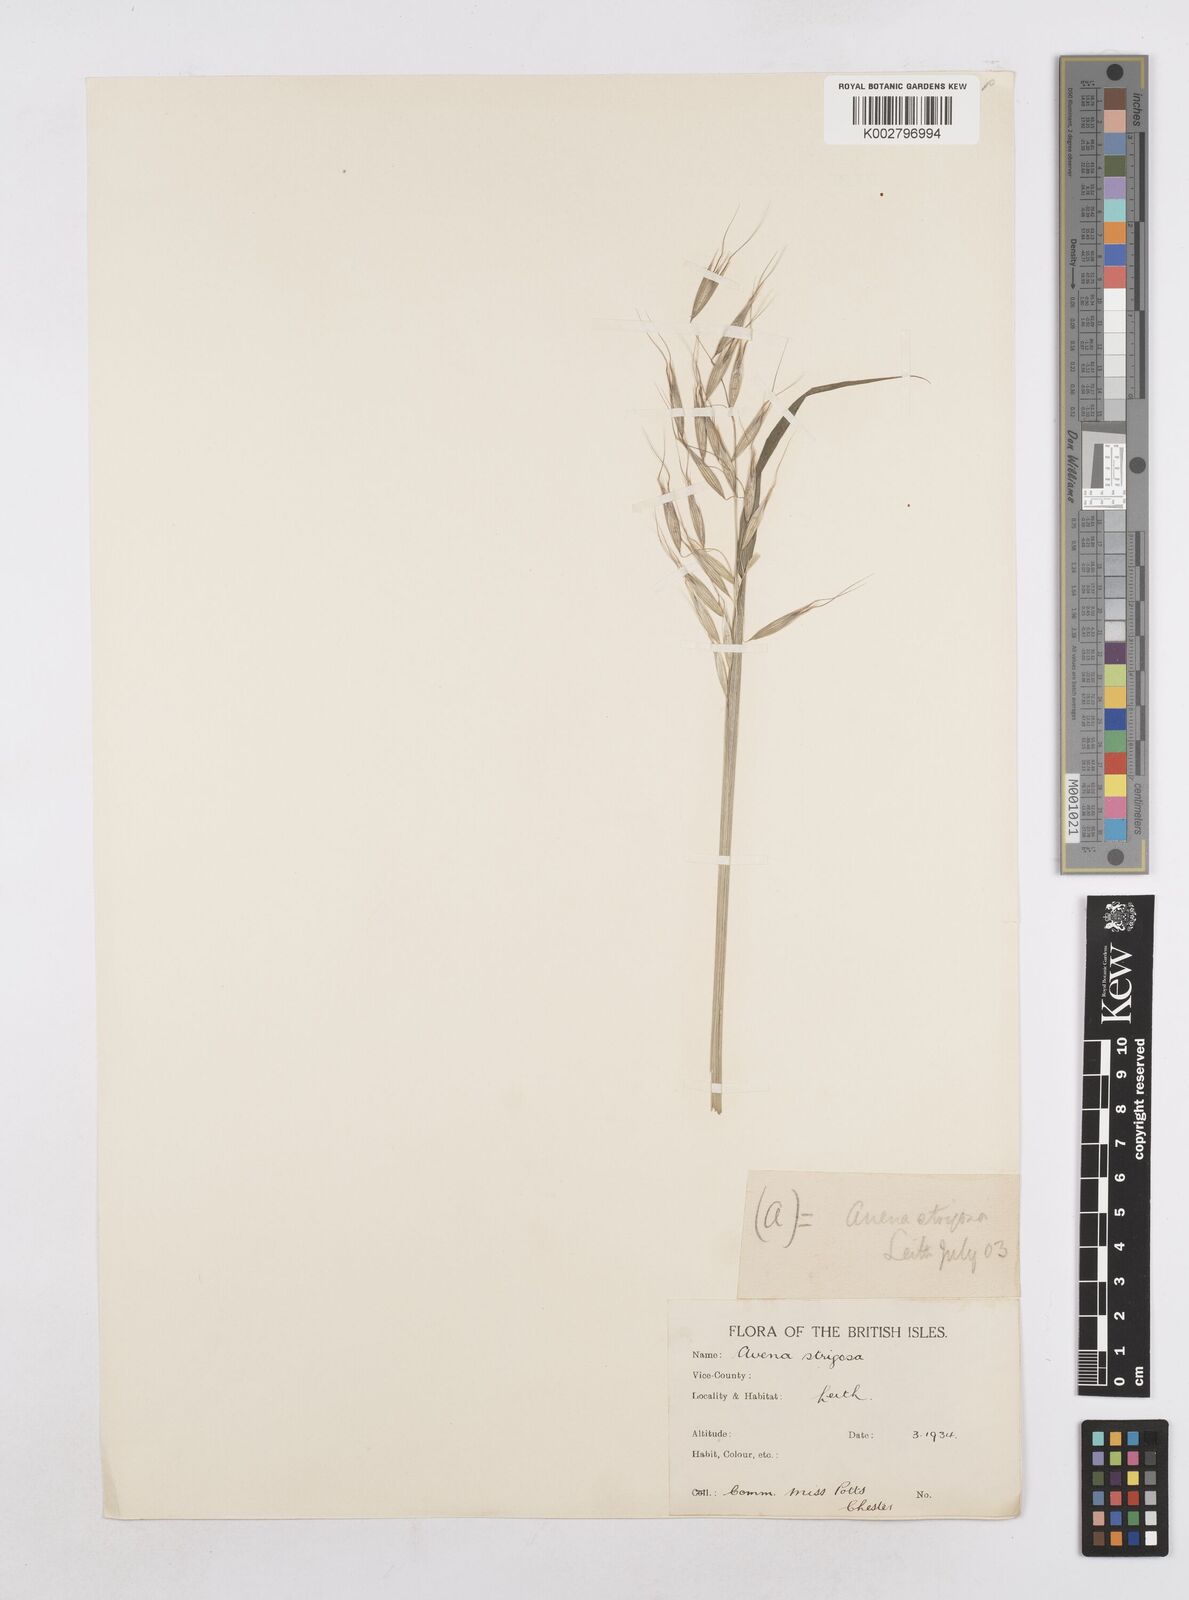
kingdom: Plantae
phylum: Tracheophyta
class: Liliopsida
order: Poales
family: Poaceae
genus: Avena
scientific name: Avena strigosa
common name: Bristle oat
